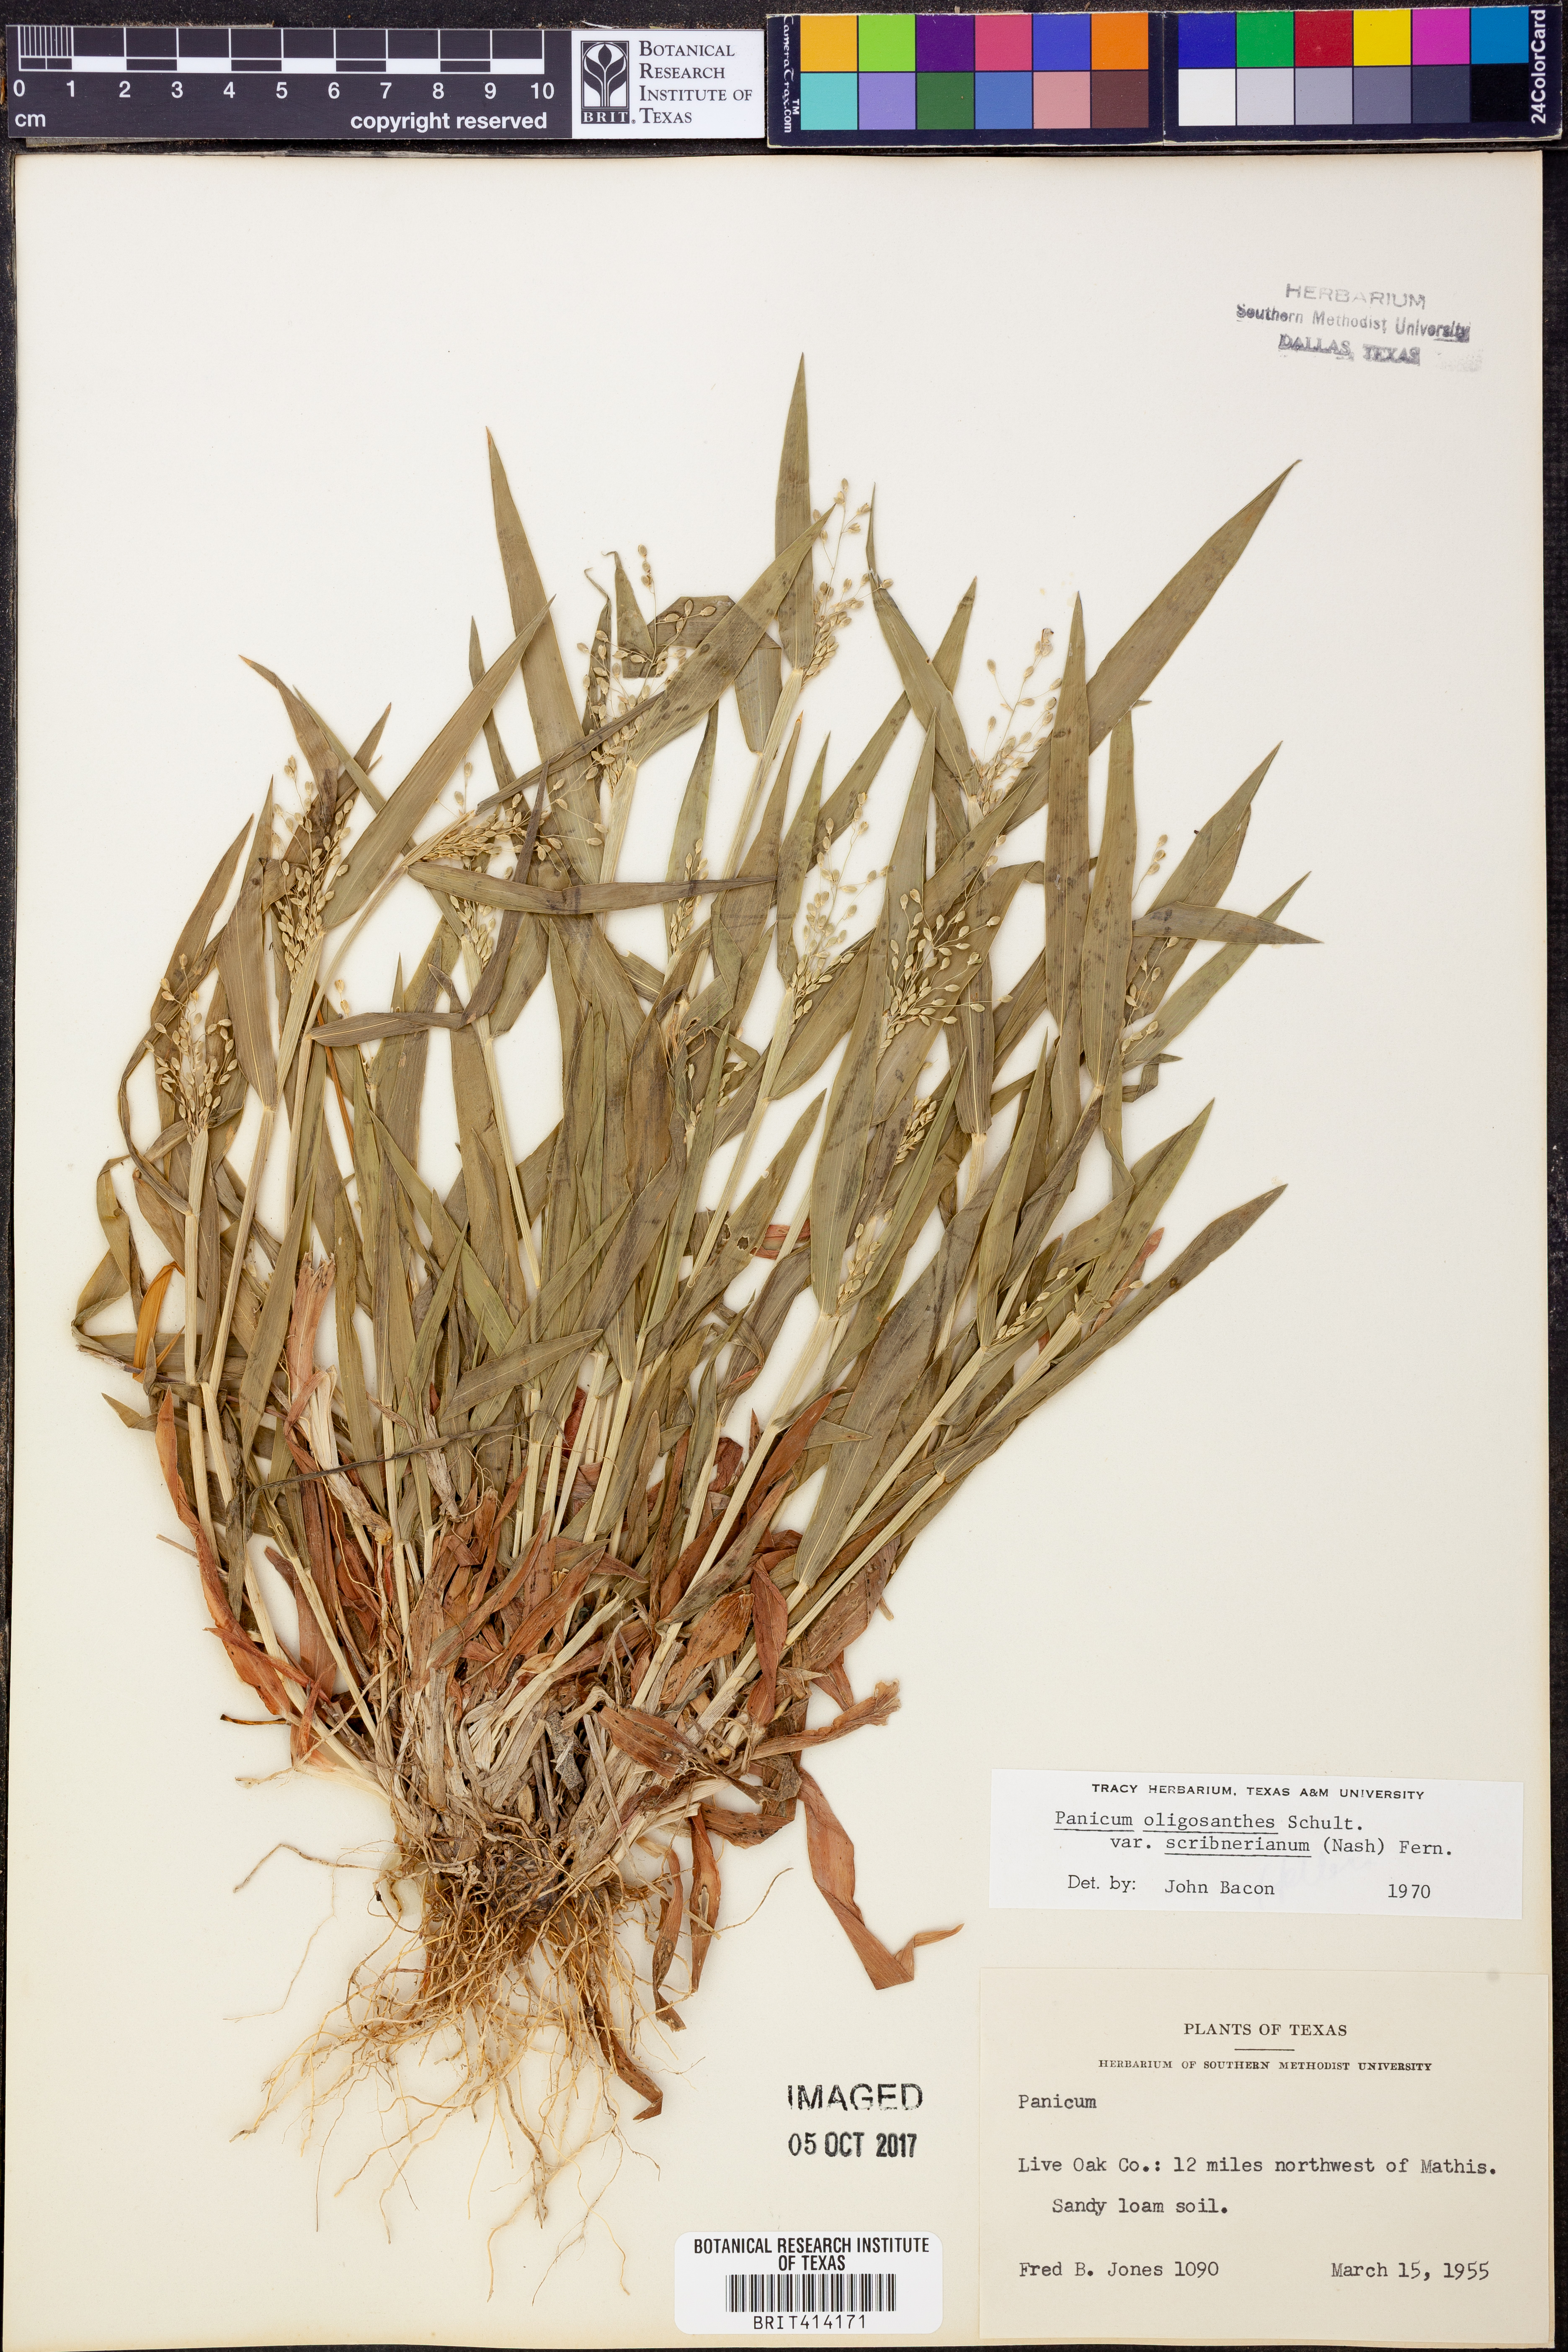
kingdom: Plantae
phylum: Tracheophyta
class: Liliopsida
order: Poales
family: Poaceae
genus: Dichanthelium
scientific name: Dichanthelium scribnerianum
